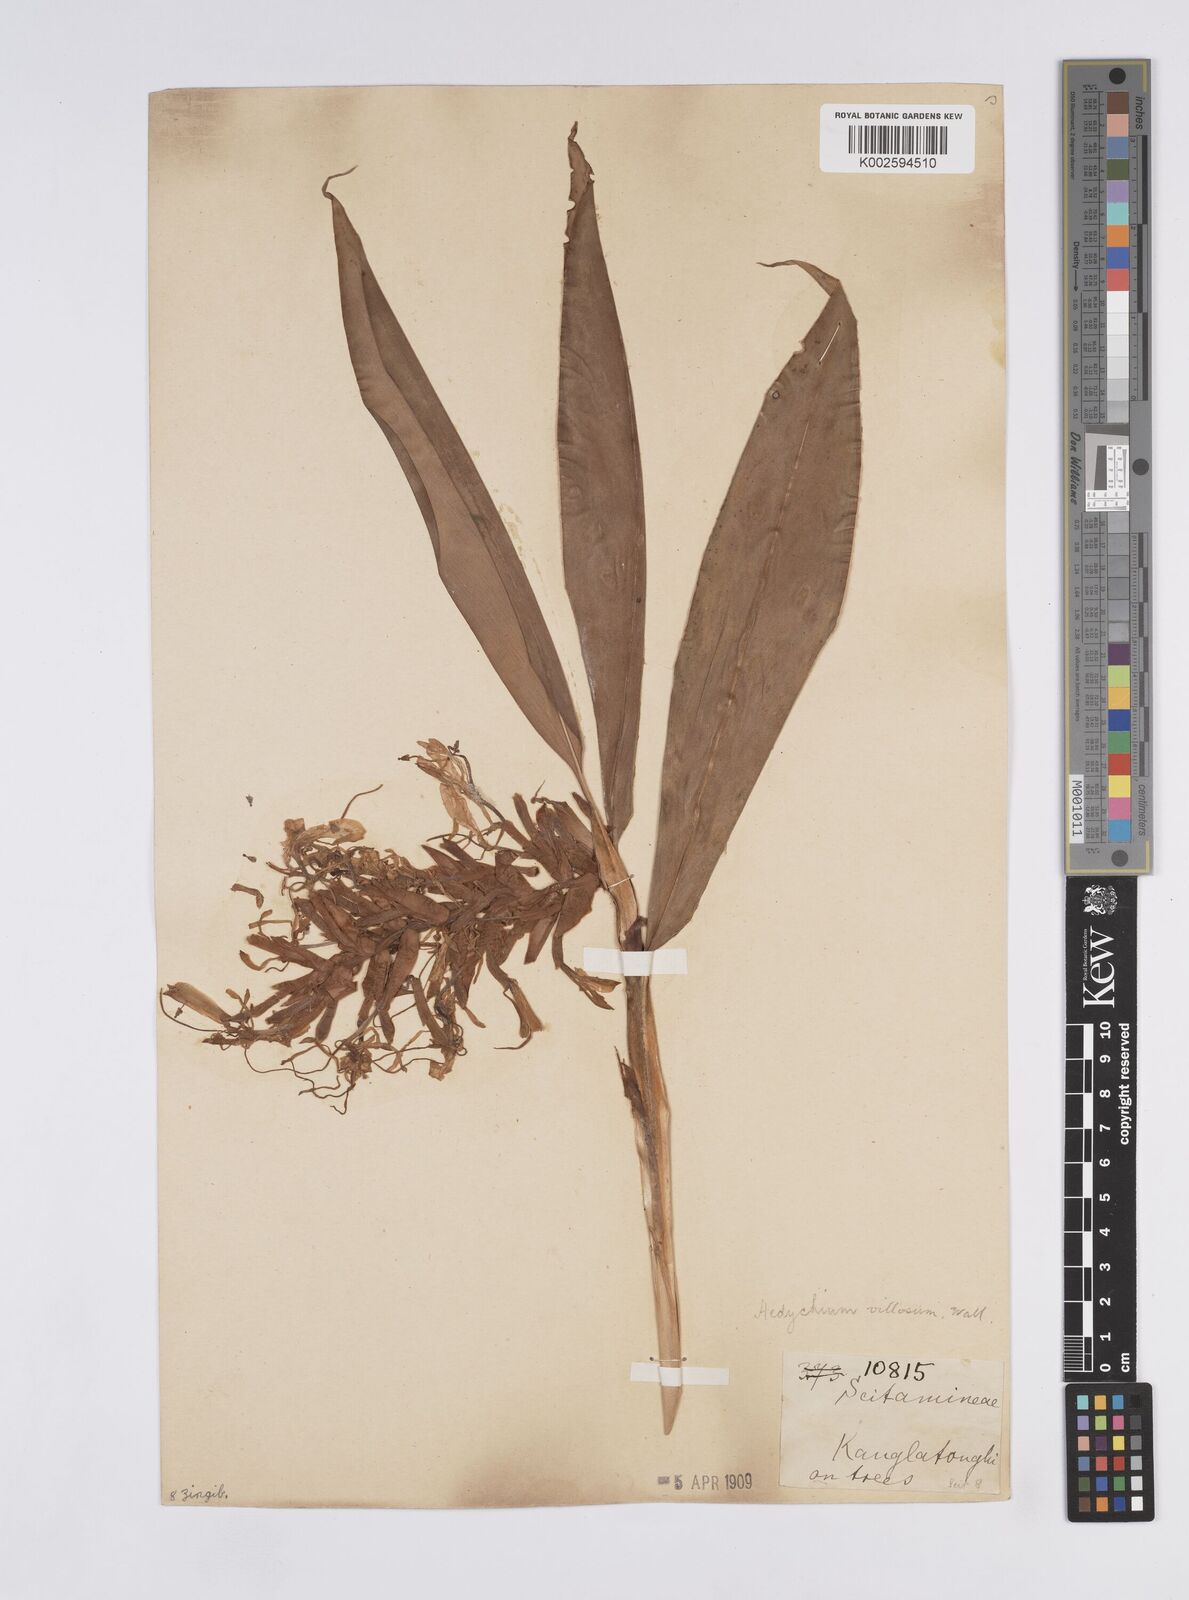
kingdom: Plantae
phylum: Tracheophyta
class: Liliopsida
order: Zingiberales
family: Zingiberaceae
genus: Hedychium
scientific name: Hedychium villosum
